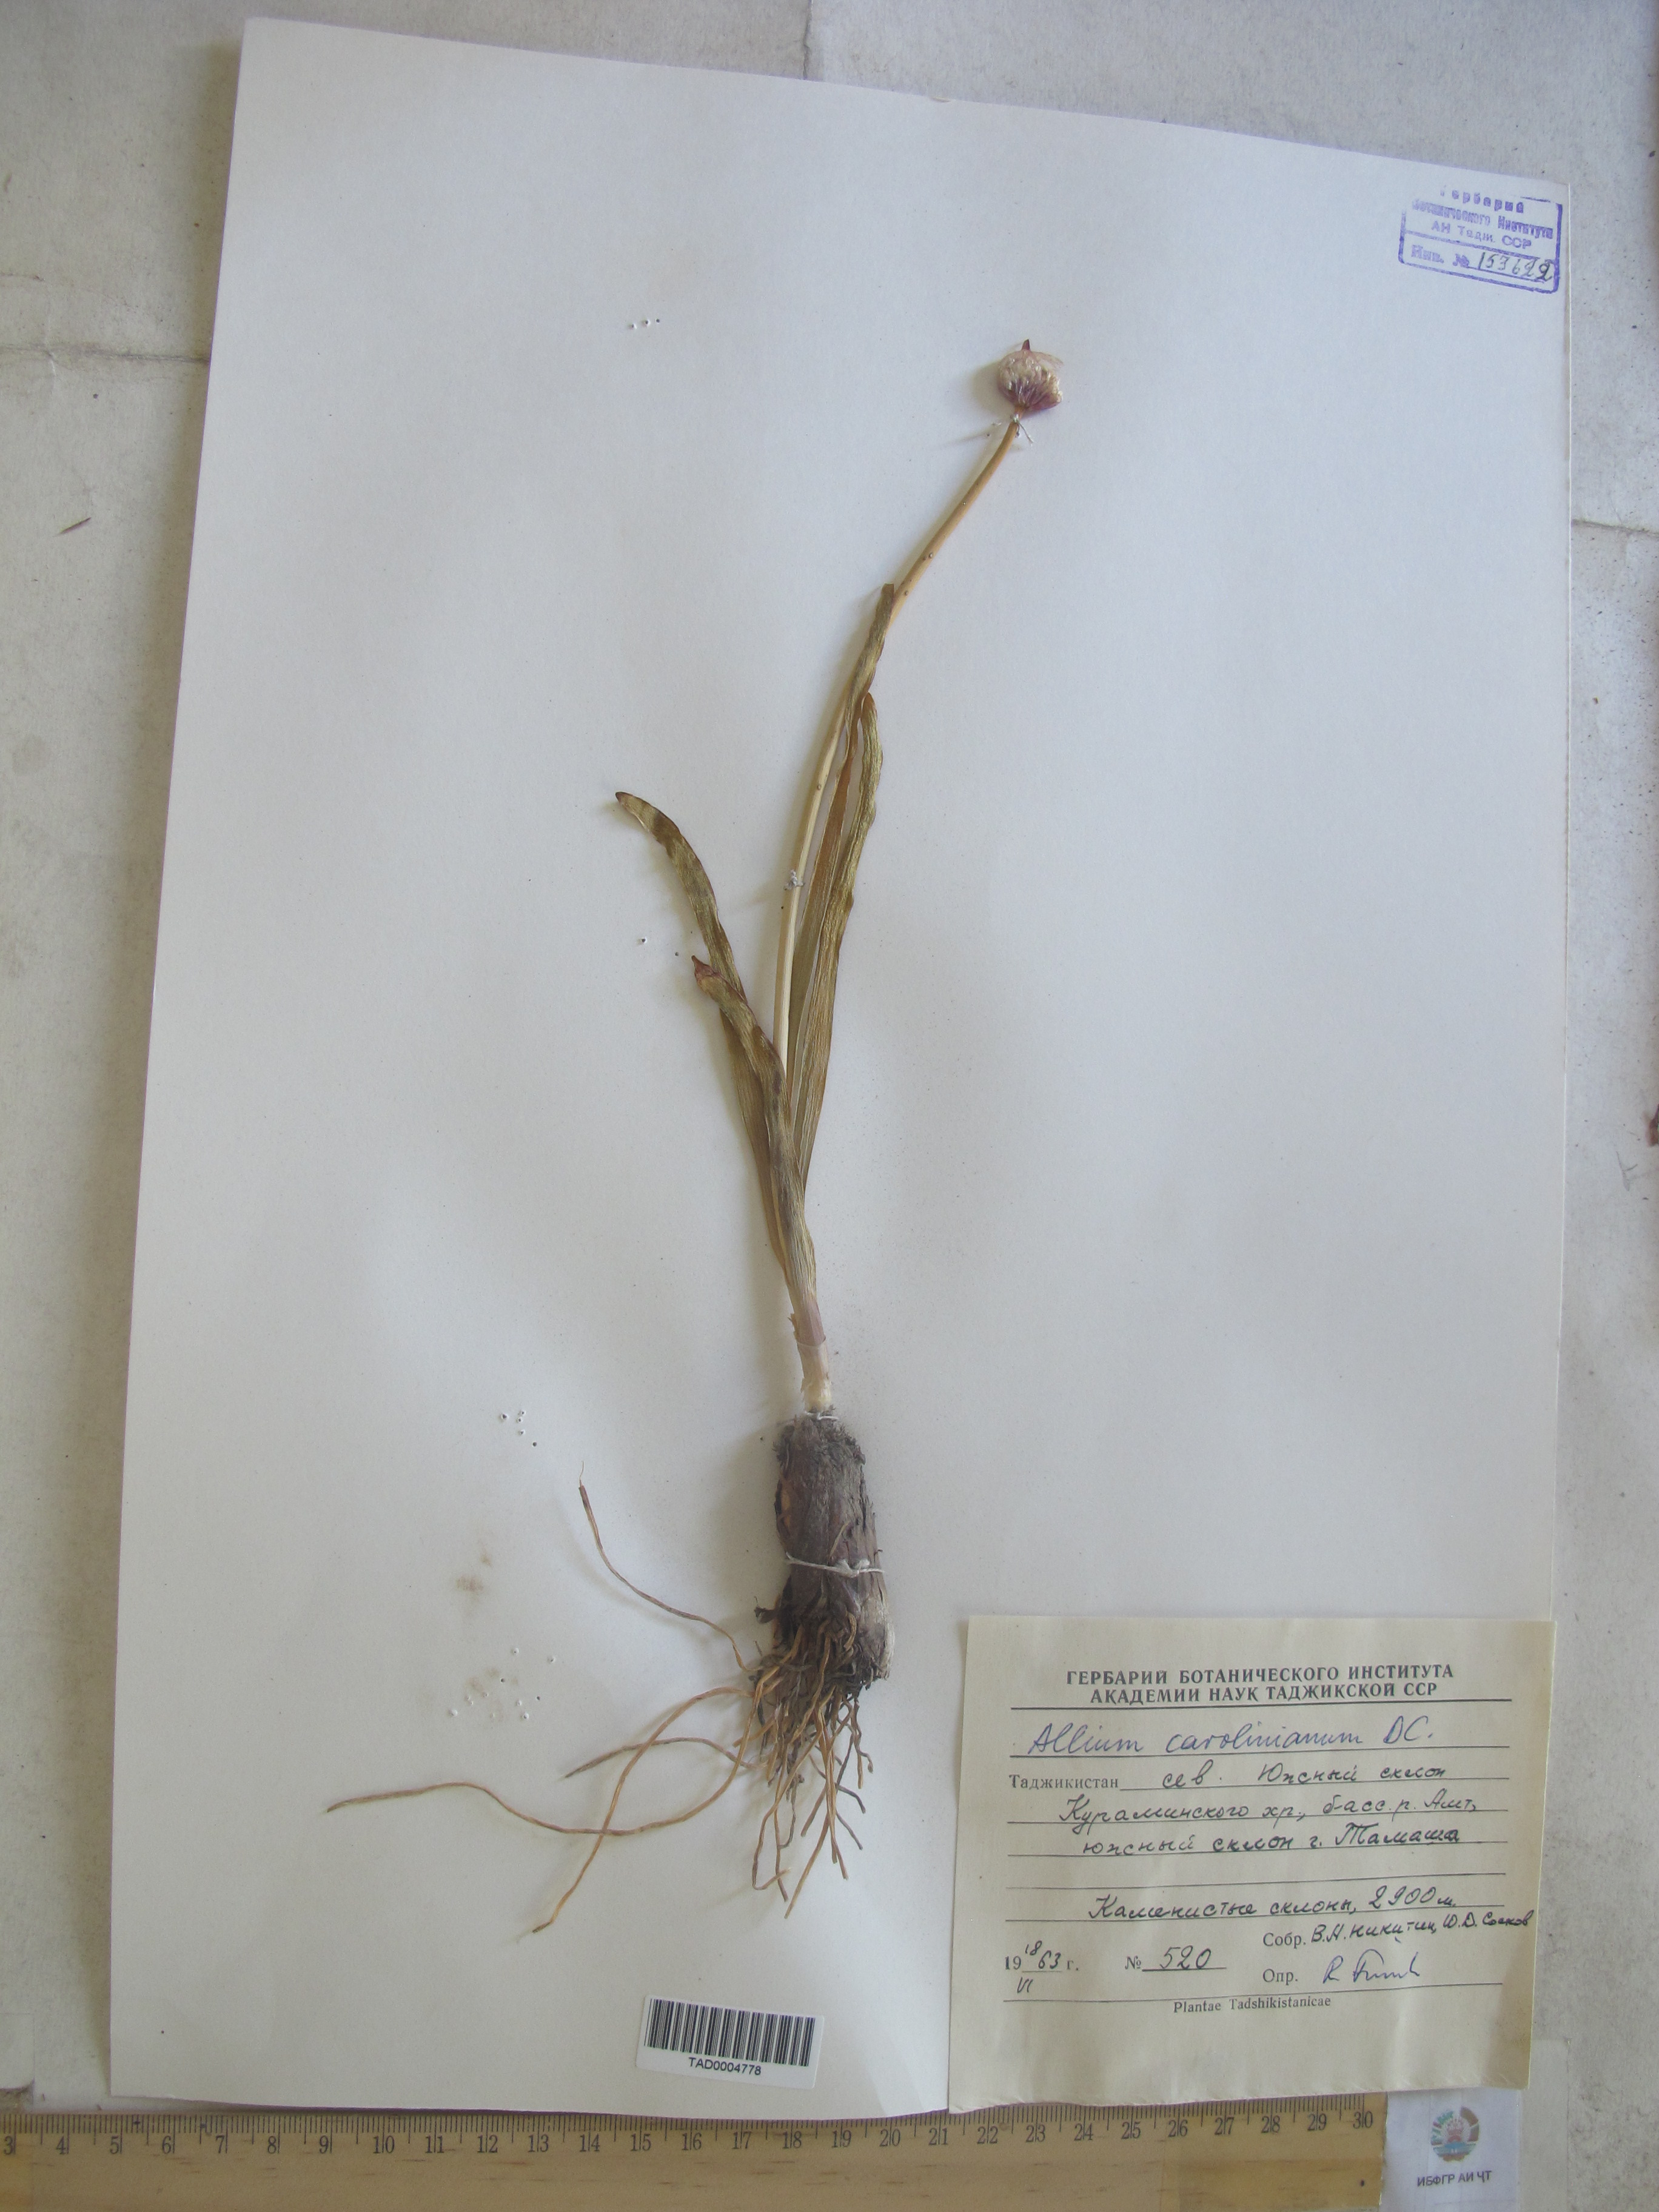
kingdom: Plantae
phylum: Tracheophyta
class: Liliopsida
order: Asparagales
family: Amaryllidaceae
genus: Allium
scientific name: Allium carolinianum
